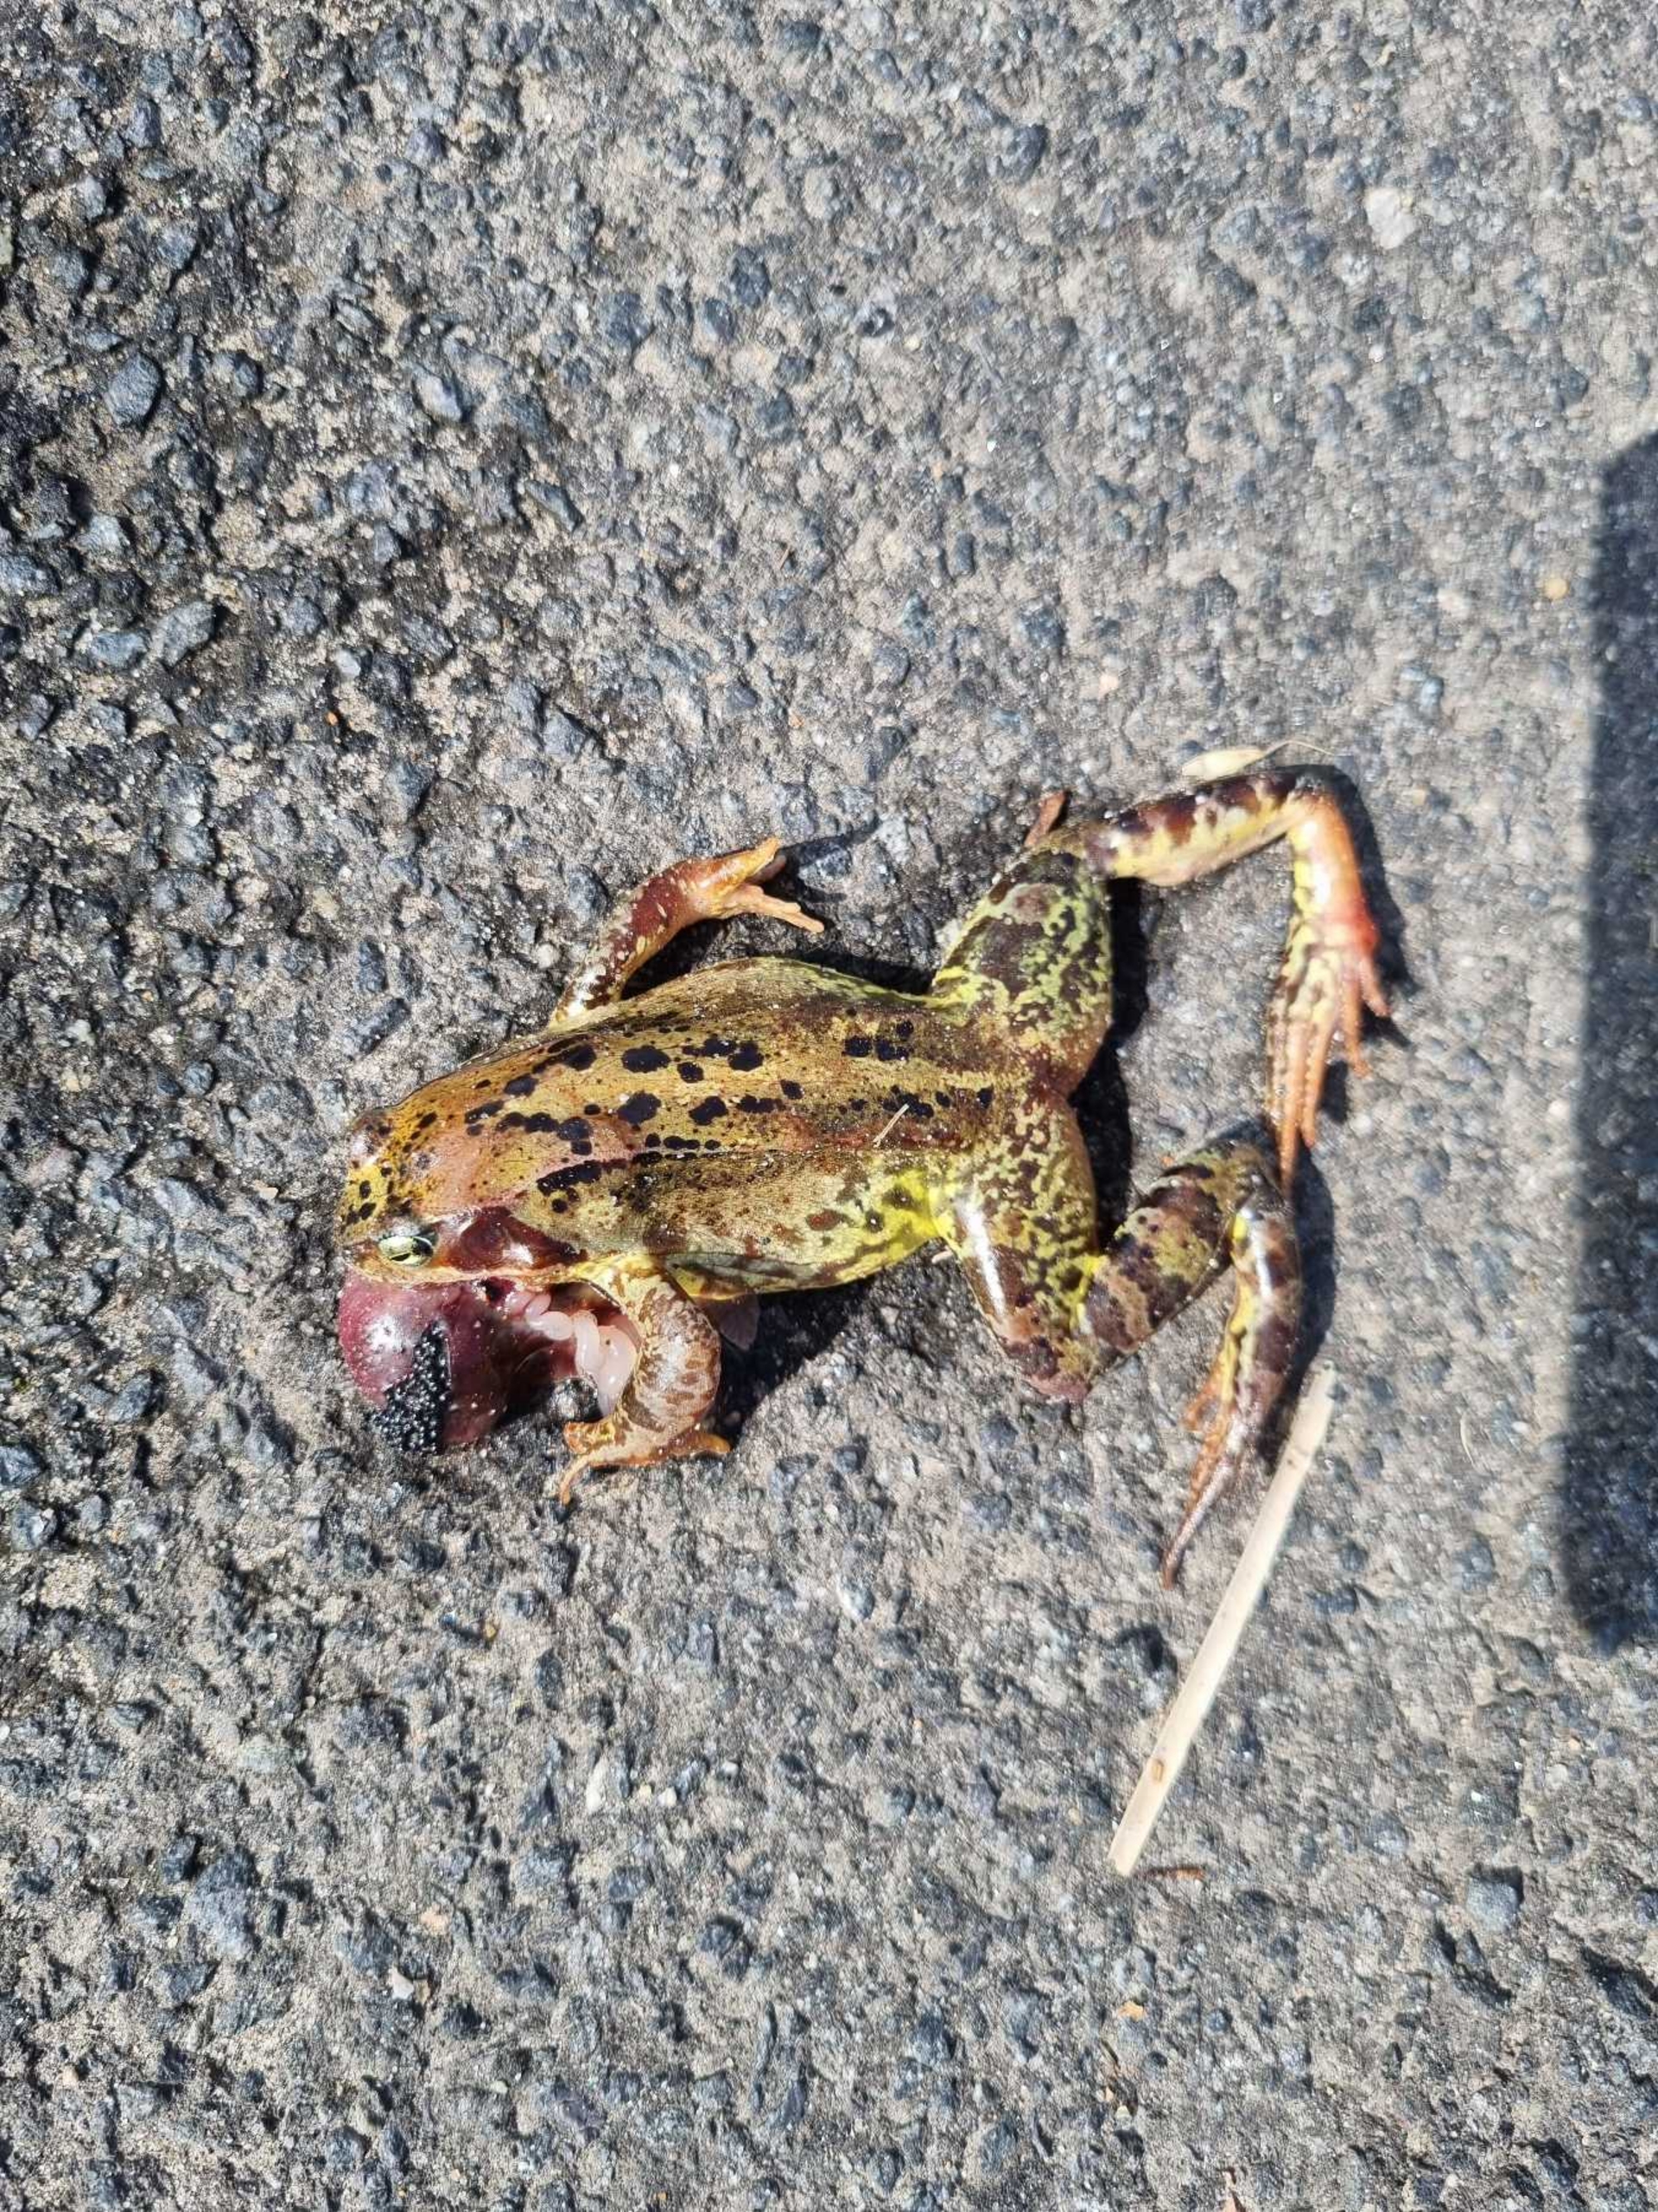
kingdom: Animalia
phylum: Chordata
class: Amphibia
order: Anura
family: Ranidae
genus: Rana
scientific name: Rana temporaria
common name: Butsnudet frø
